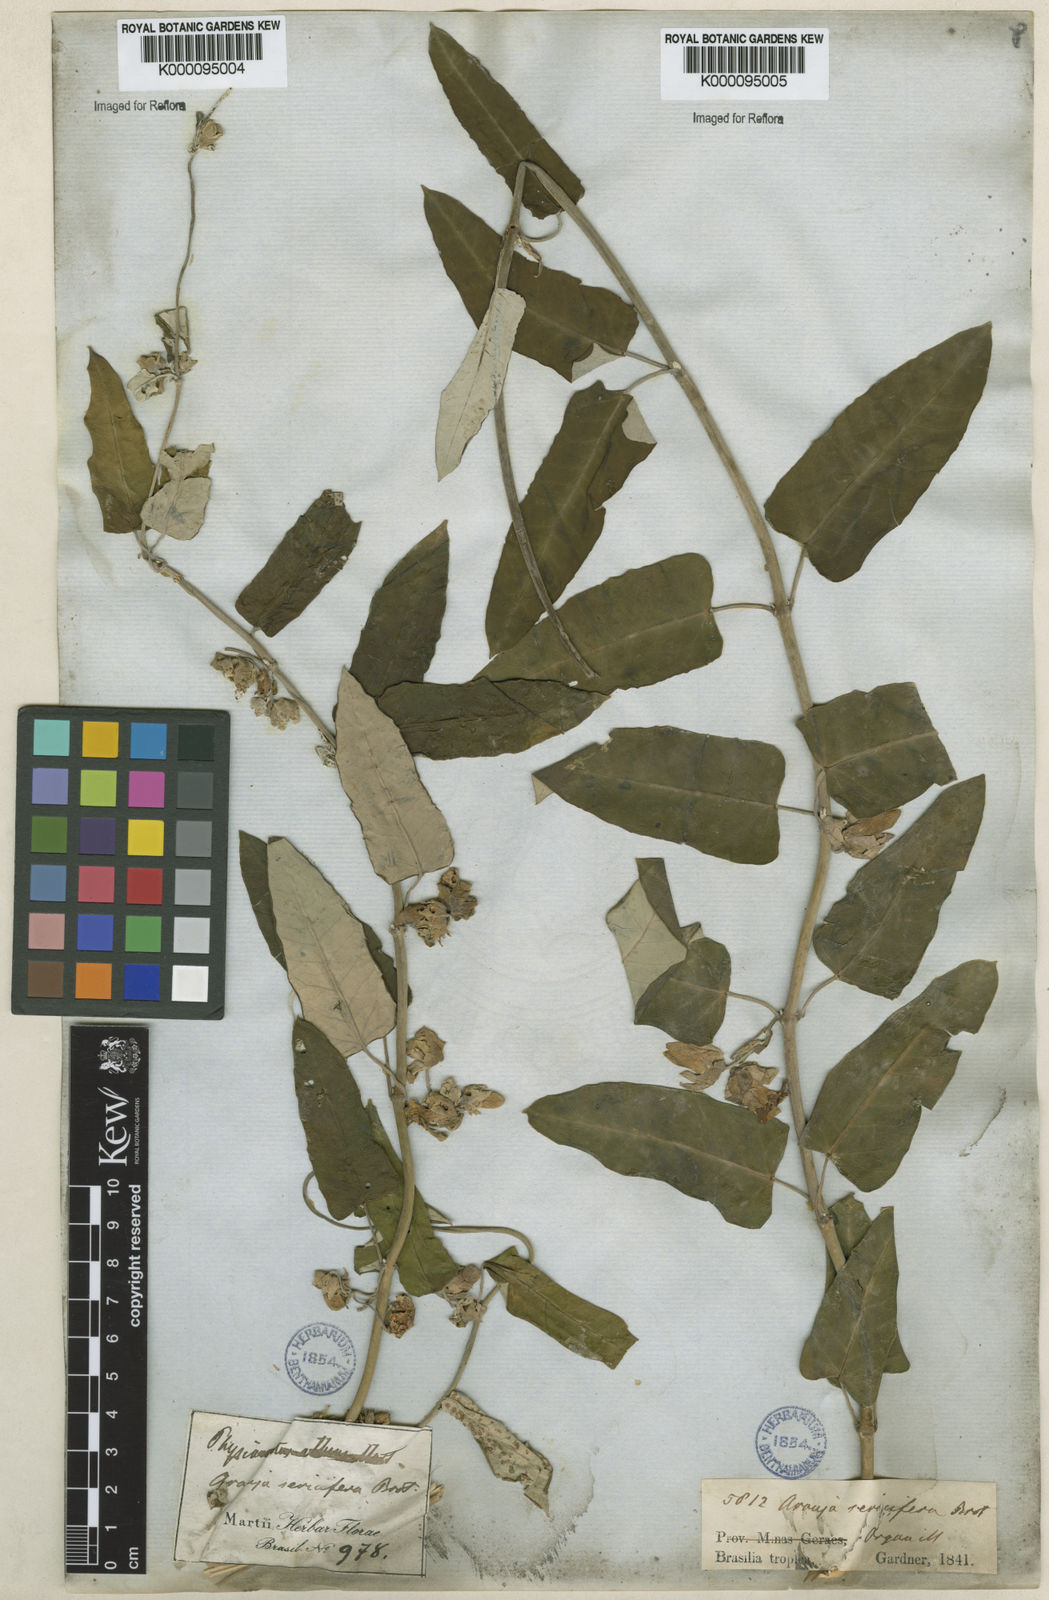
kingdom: Plantae
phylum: Tracheophyta
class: Magnoliopsida
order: Gentianales
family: Apocynaceae
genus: Araujia
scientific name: Araujia sericifera
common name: White bladderflower
